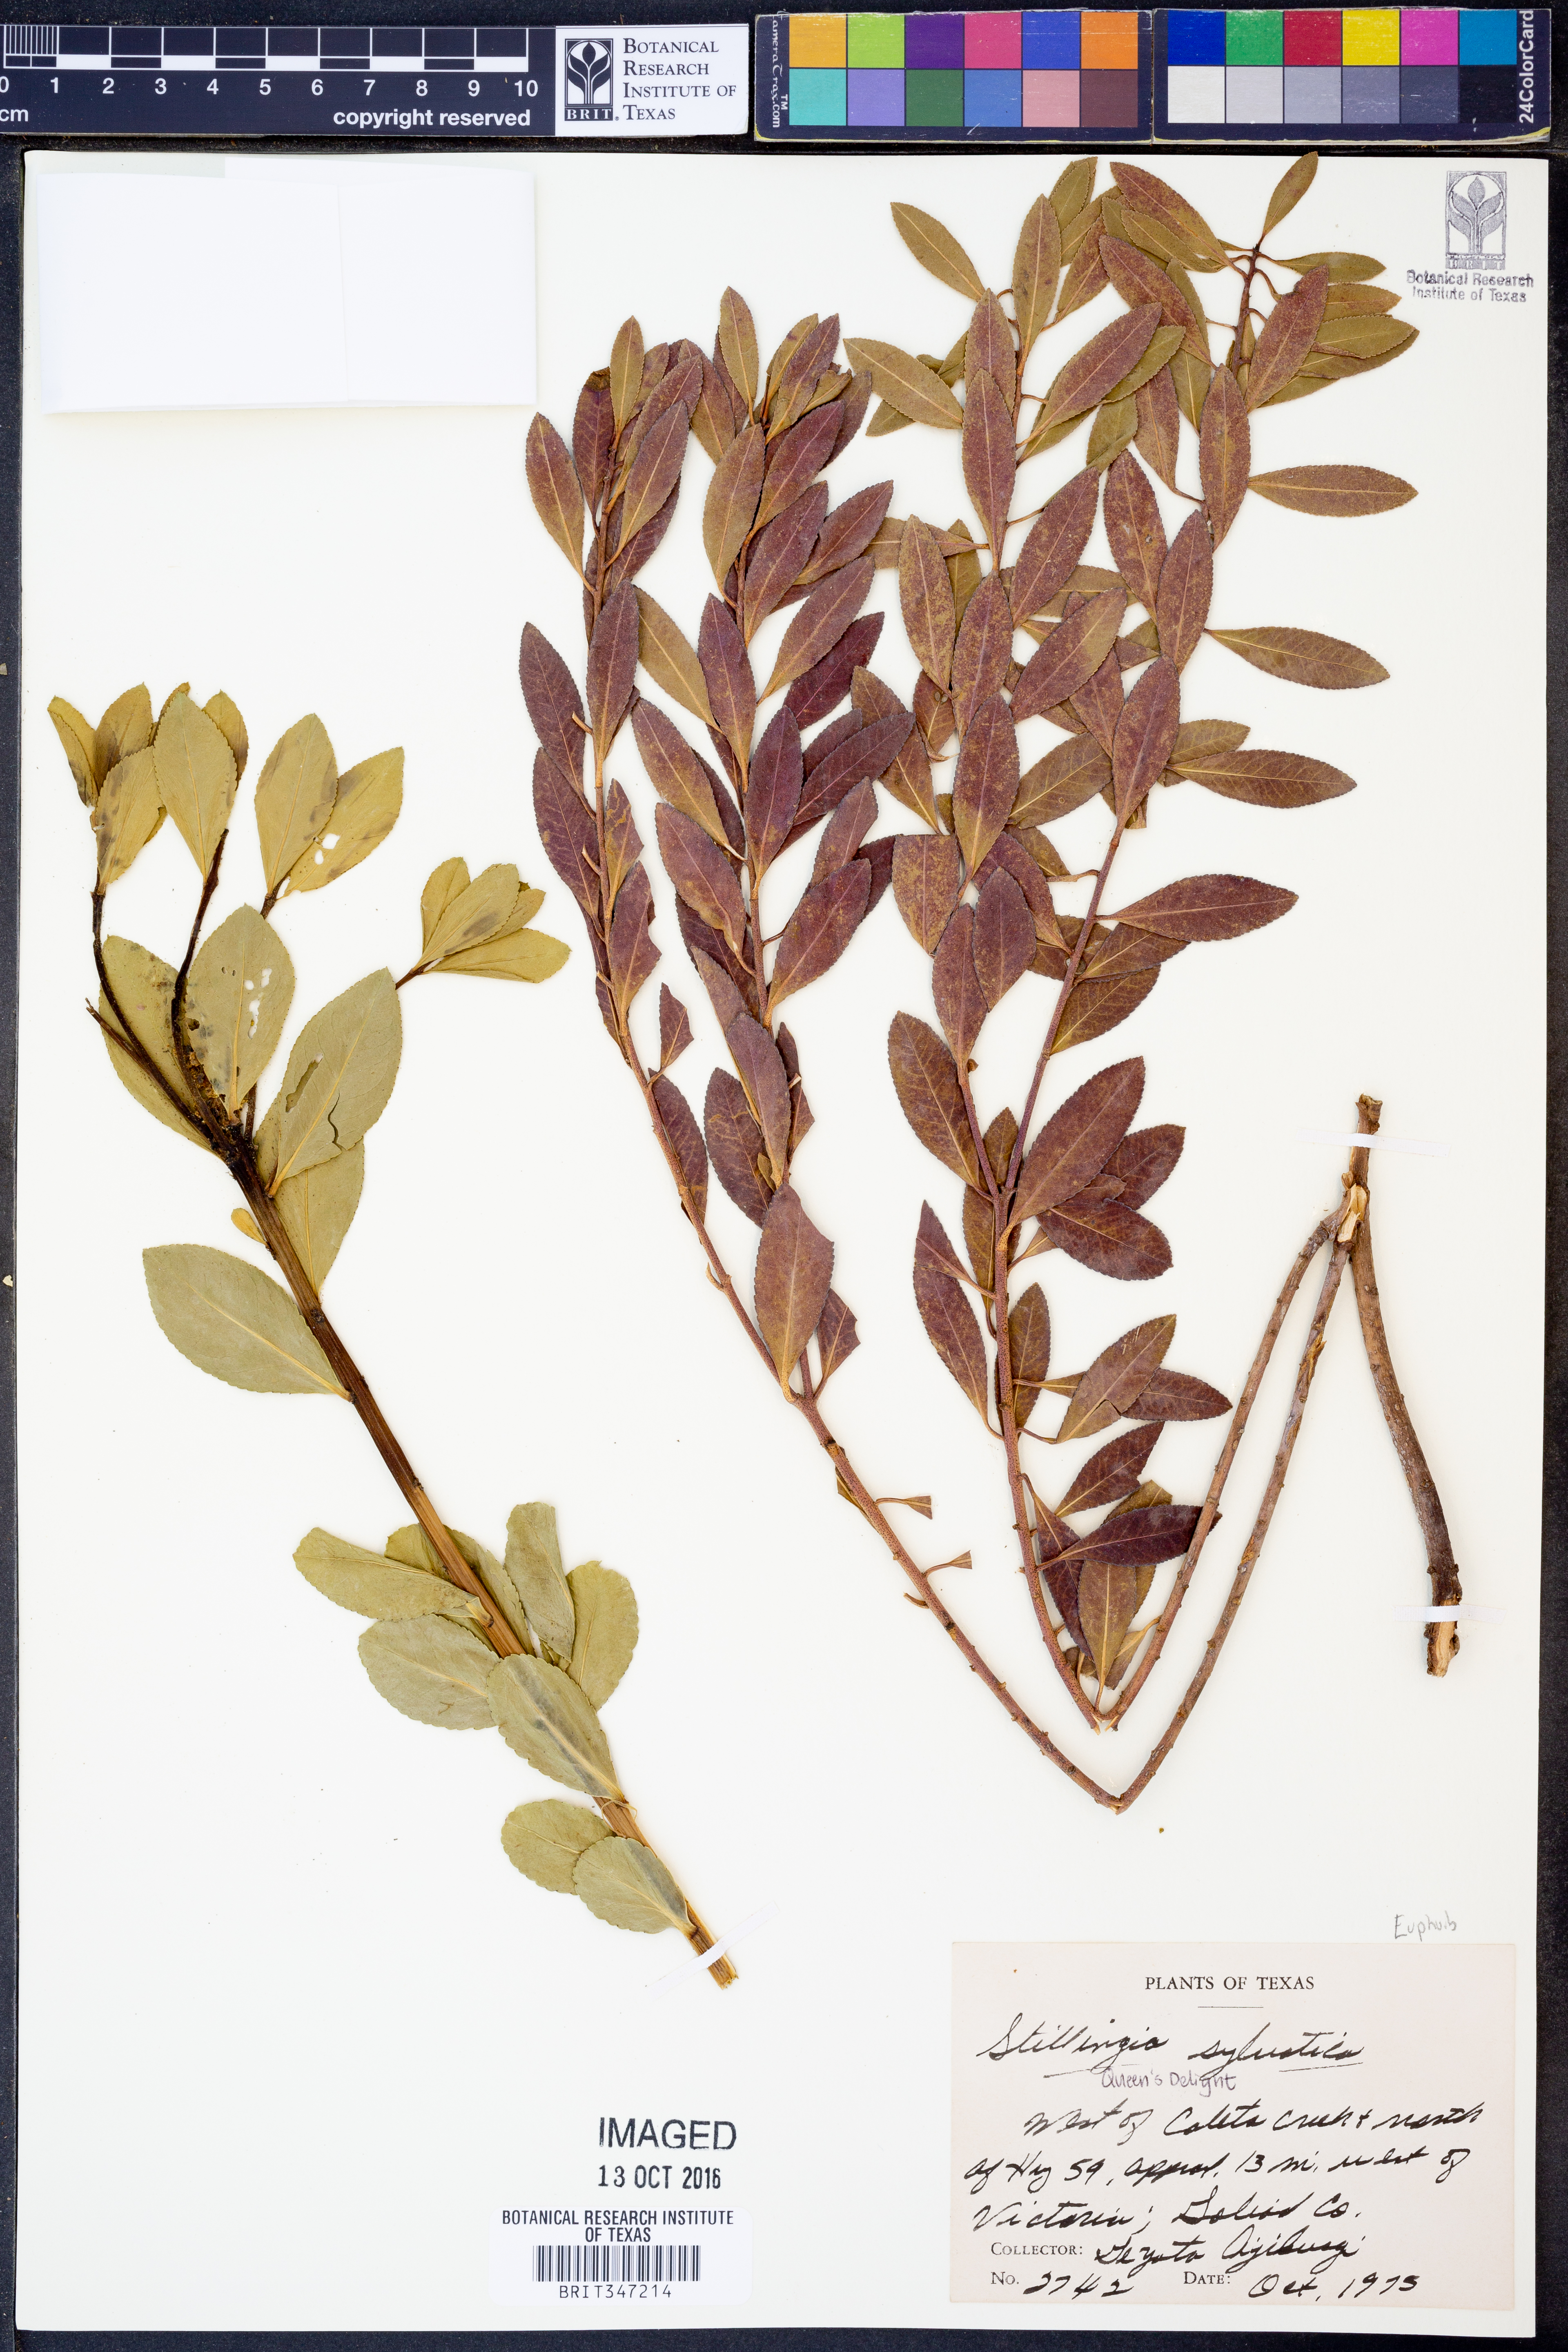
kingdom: Plantae
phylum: Tracheophyta
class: Magnoliopsida
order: Malpighiales
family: Euphorbiaceae
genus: Stillingia
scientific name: Stillingia sylvatica
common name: Queen's-delight
